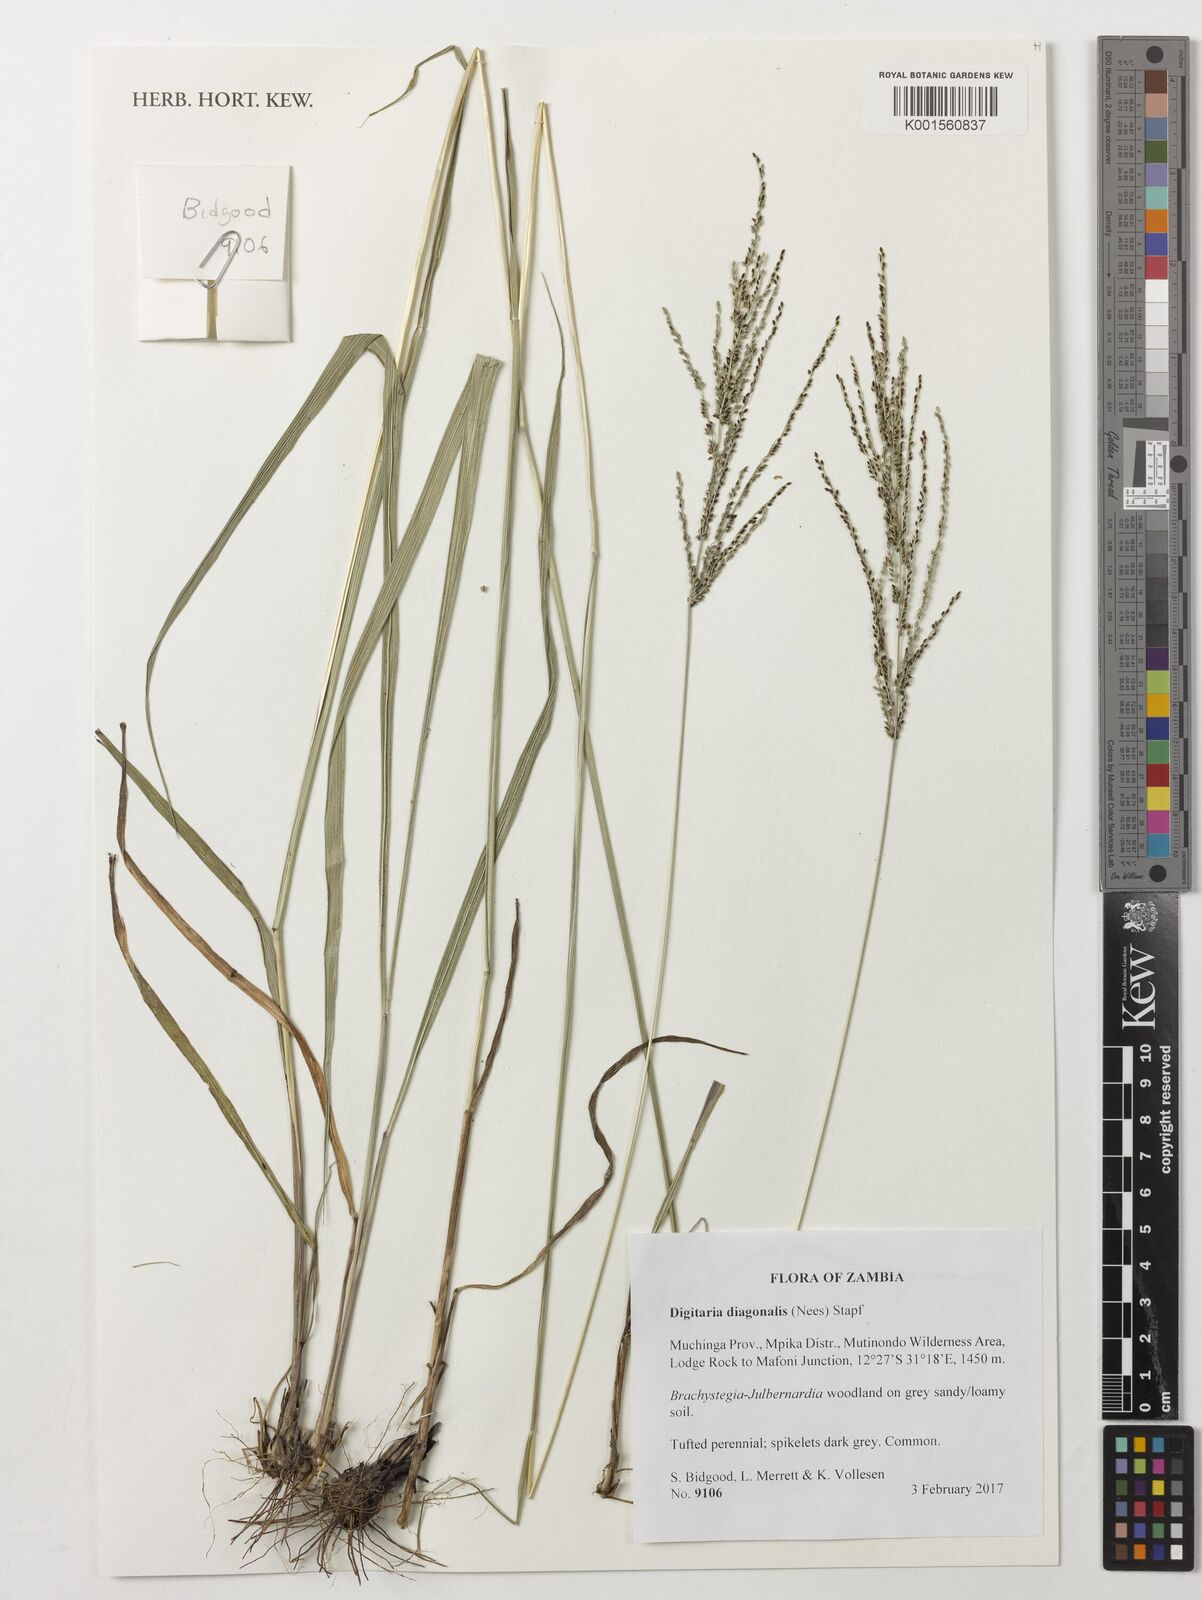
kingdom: Plantae
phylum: Tracheophyta
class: Liliopsida
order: Poales
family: Poaceae
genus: Digitaria
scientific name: Digitaria diagonalis
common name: Brown-seed finger grass
